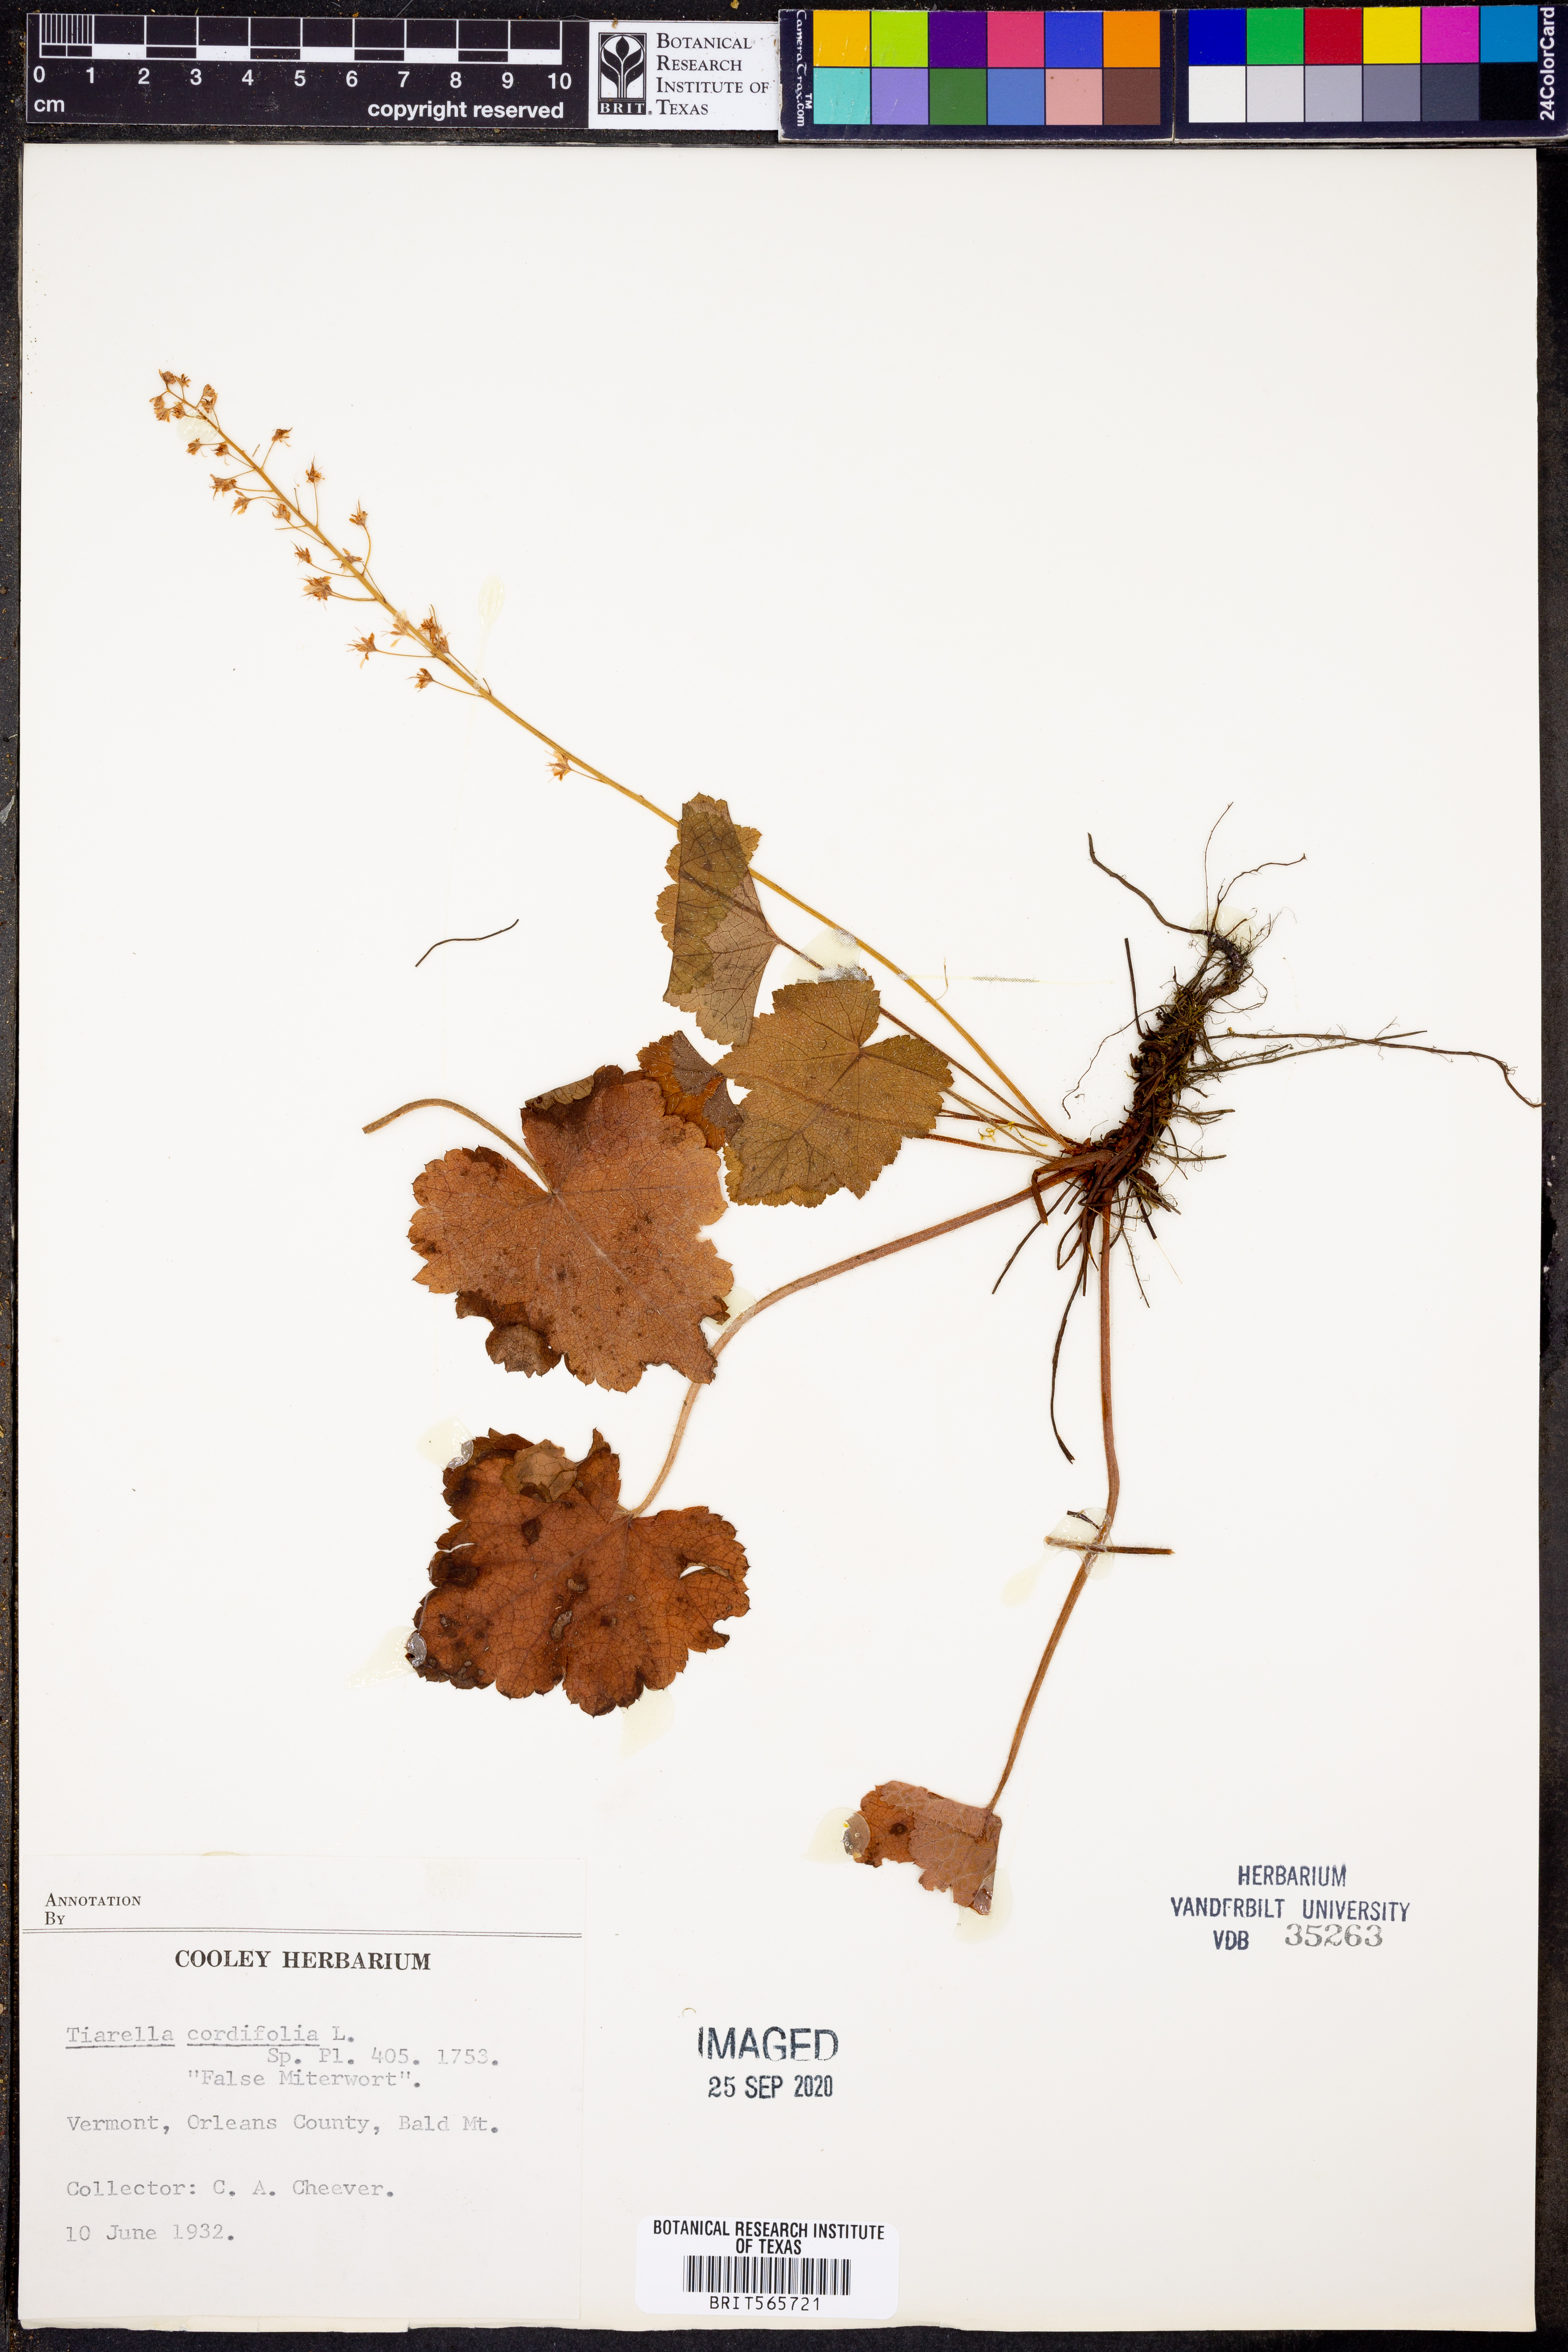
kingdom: Plantae
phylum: Tracheophyta
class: Magnoliopsida
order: Saxifragales
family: Saxifragaceae
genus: Tiarella
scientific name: Tiarella cordifolia
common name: Foamflower
